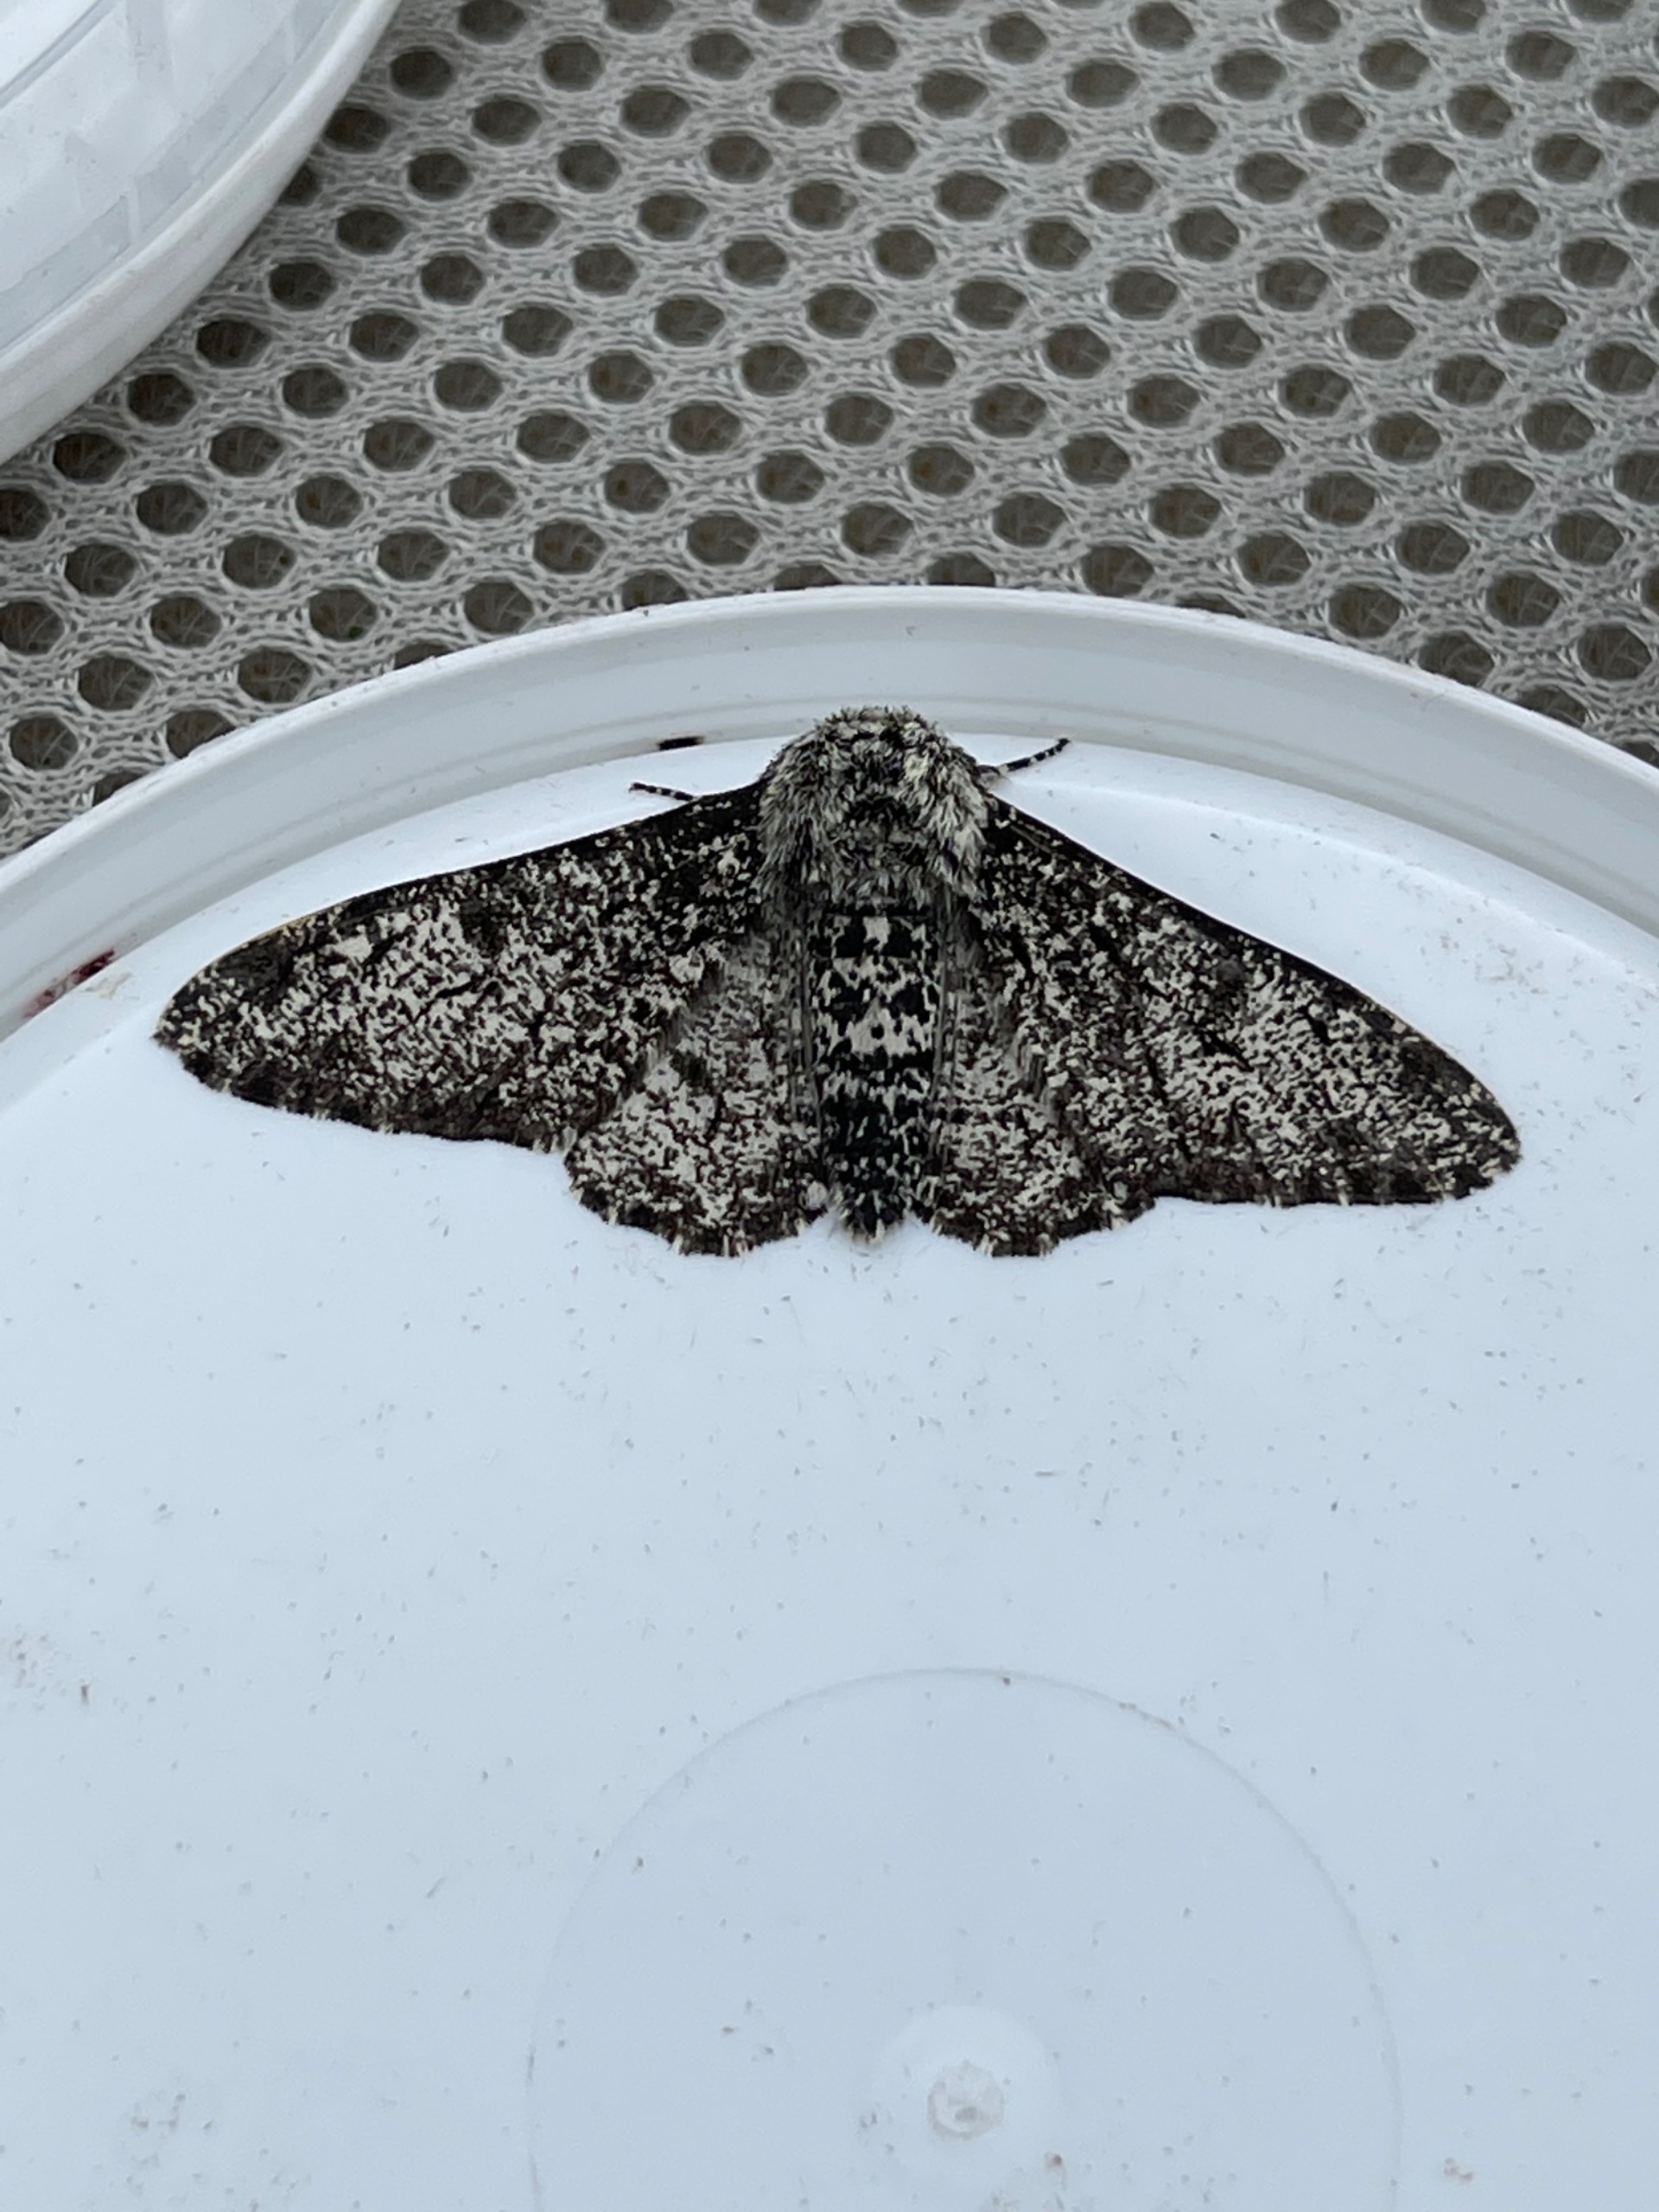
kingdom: Animalia
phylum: Arthropoda
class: Insecta
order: Lepidoptera
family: Geometridae
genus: Biston
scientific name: Biston betularia
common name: Birkemåler
